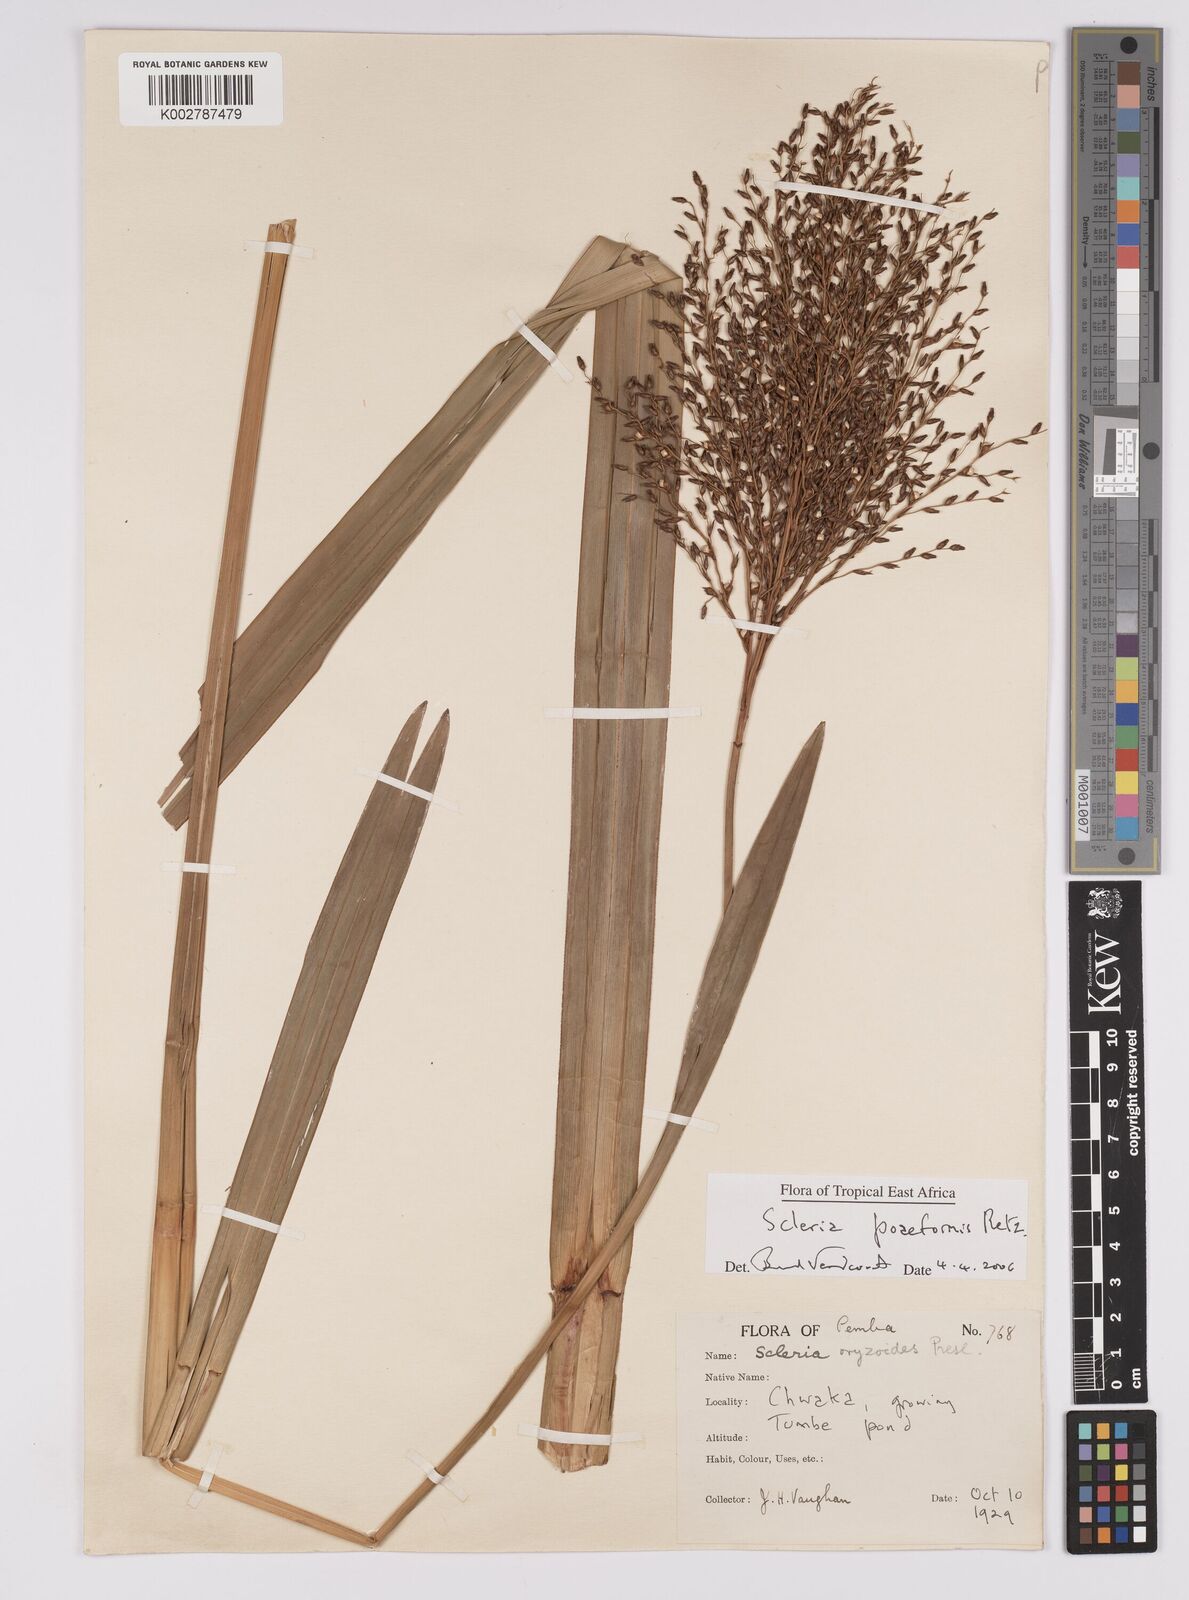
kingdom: Plantae
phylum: Tracheophyta
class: Liliopsida
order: Poales
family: Cyperaceae
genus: Scleria
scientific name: Scleria poiformis
